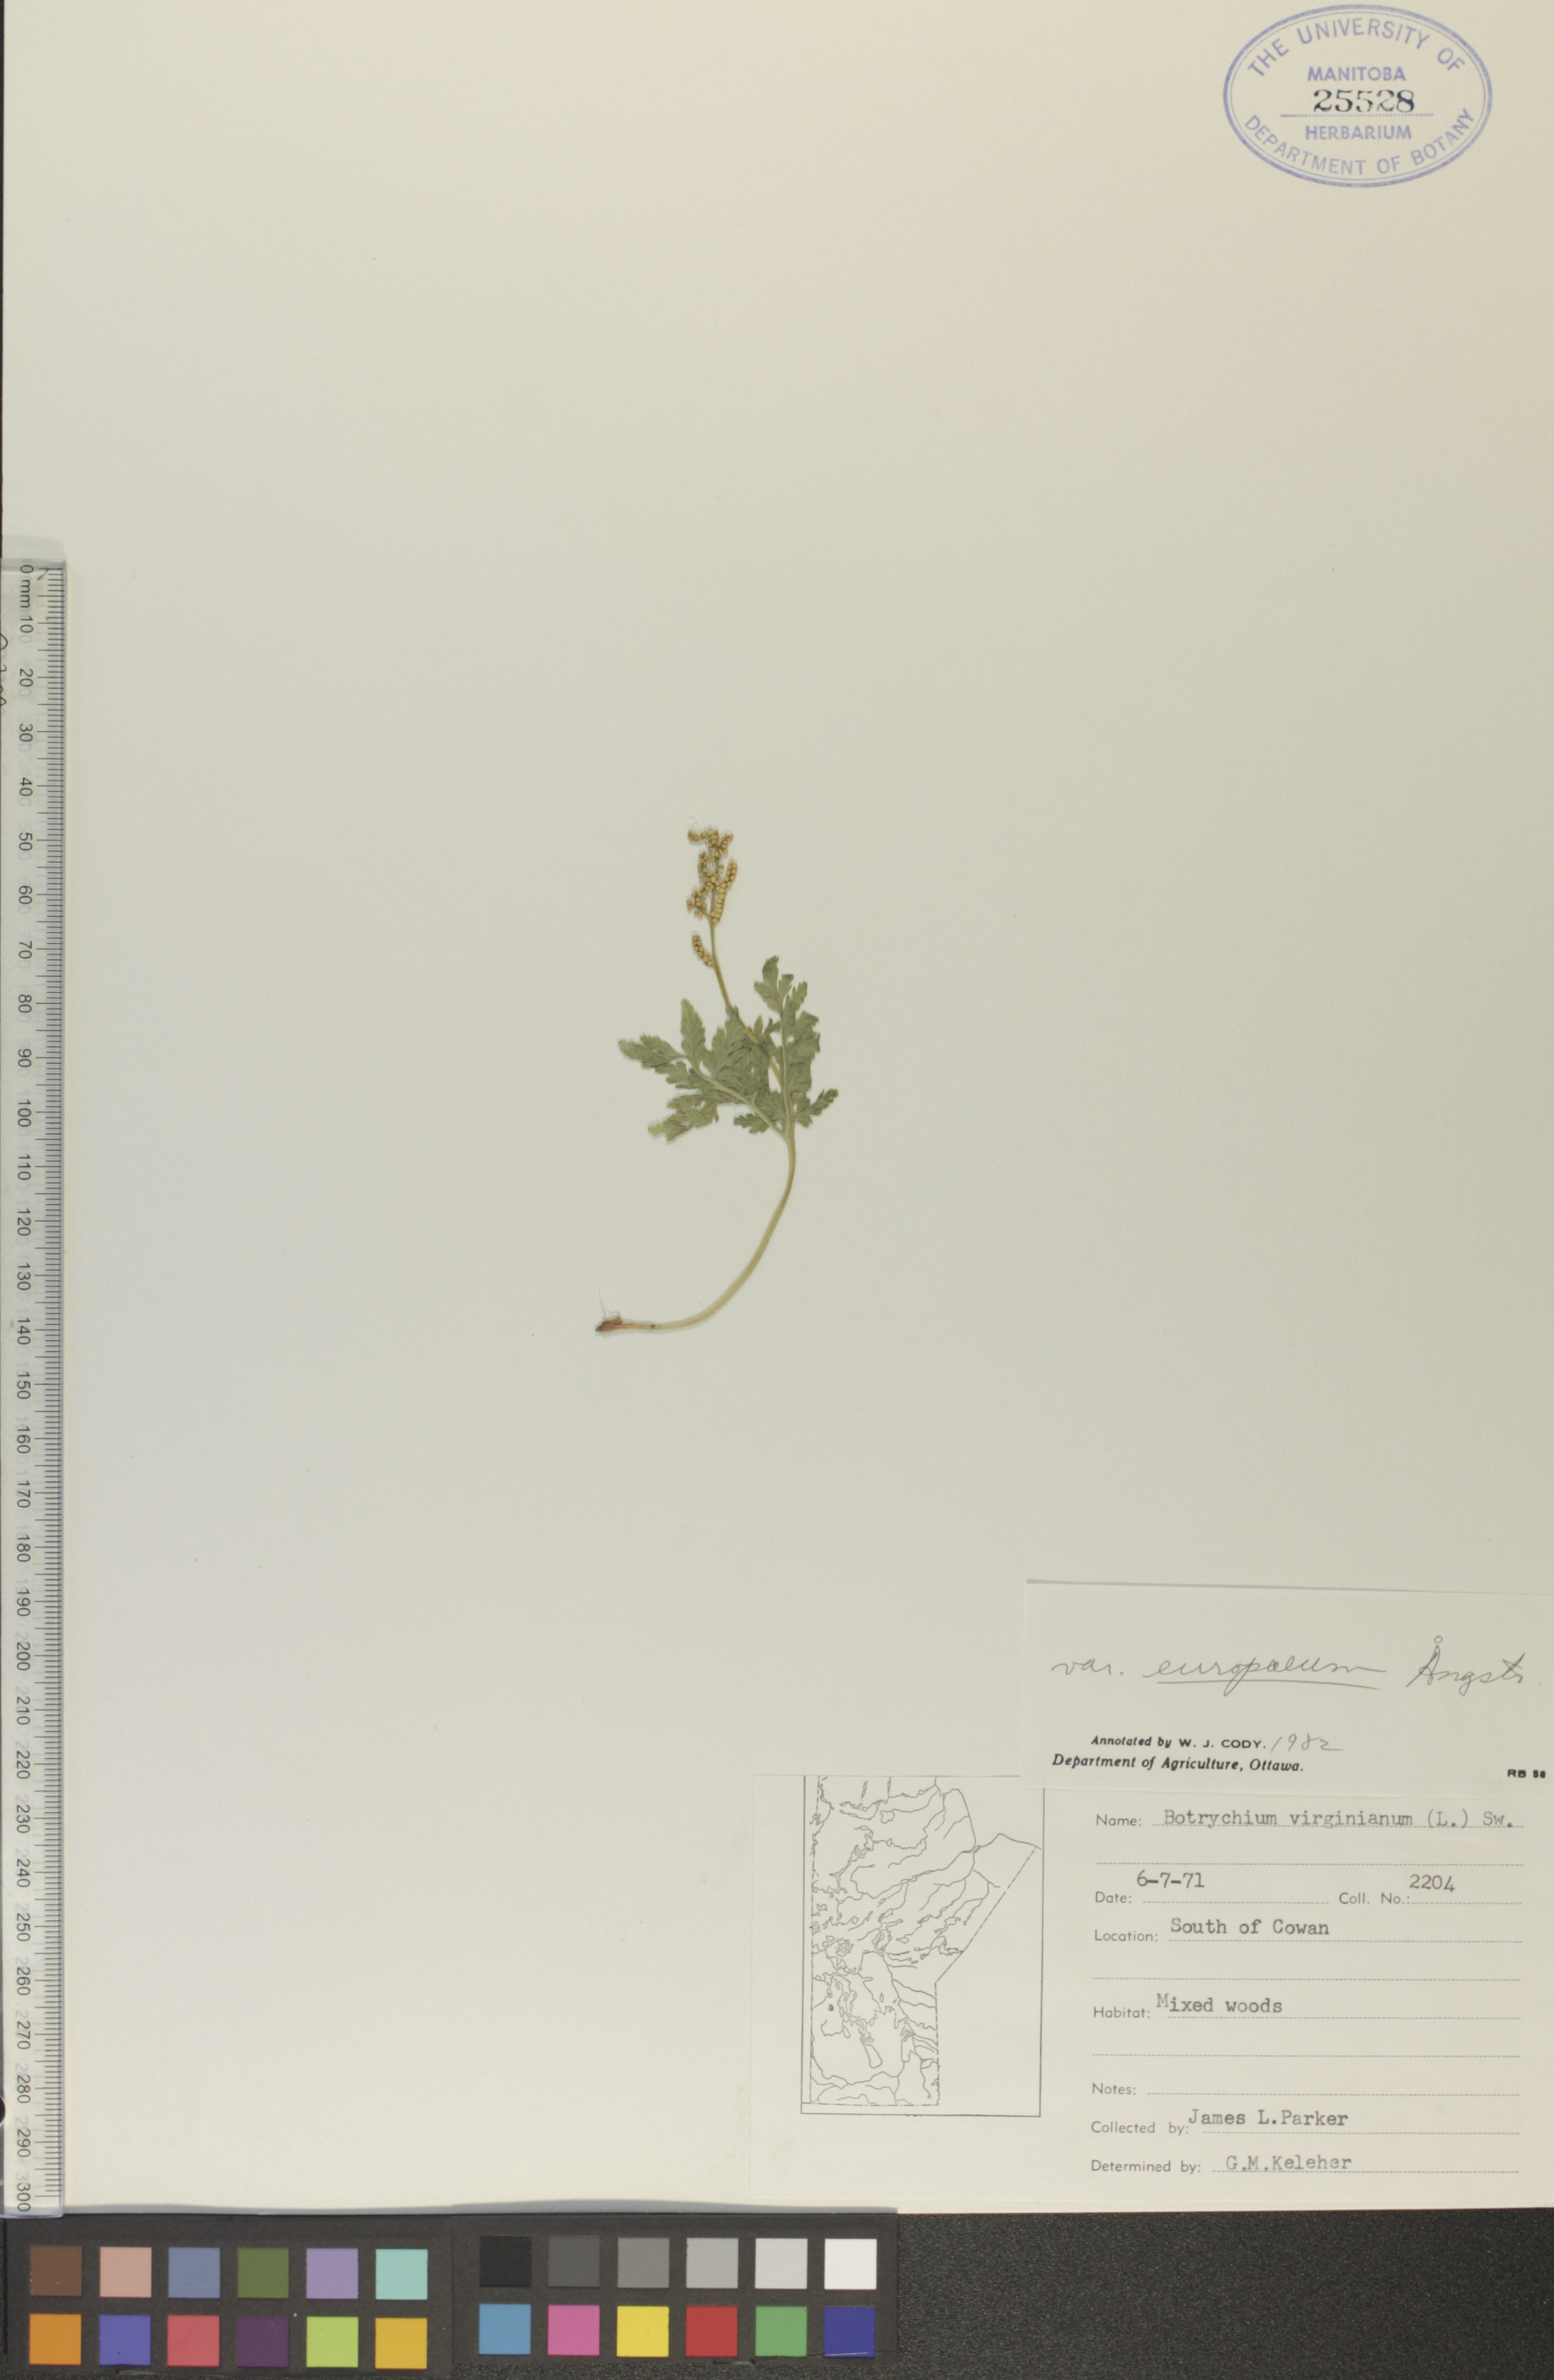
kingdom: Plantae
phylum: Tracheophyta
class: Polypodiopsida
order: Ophioglossales
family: Ophioglossaceae
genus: Botrypus
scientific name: Botrypus virginianus
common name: Common grapefern
